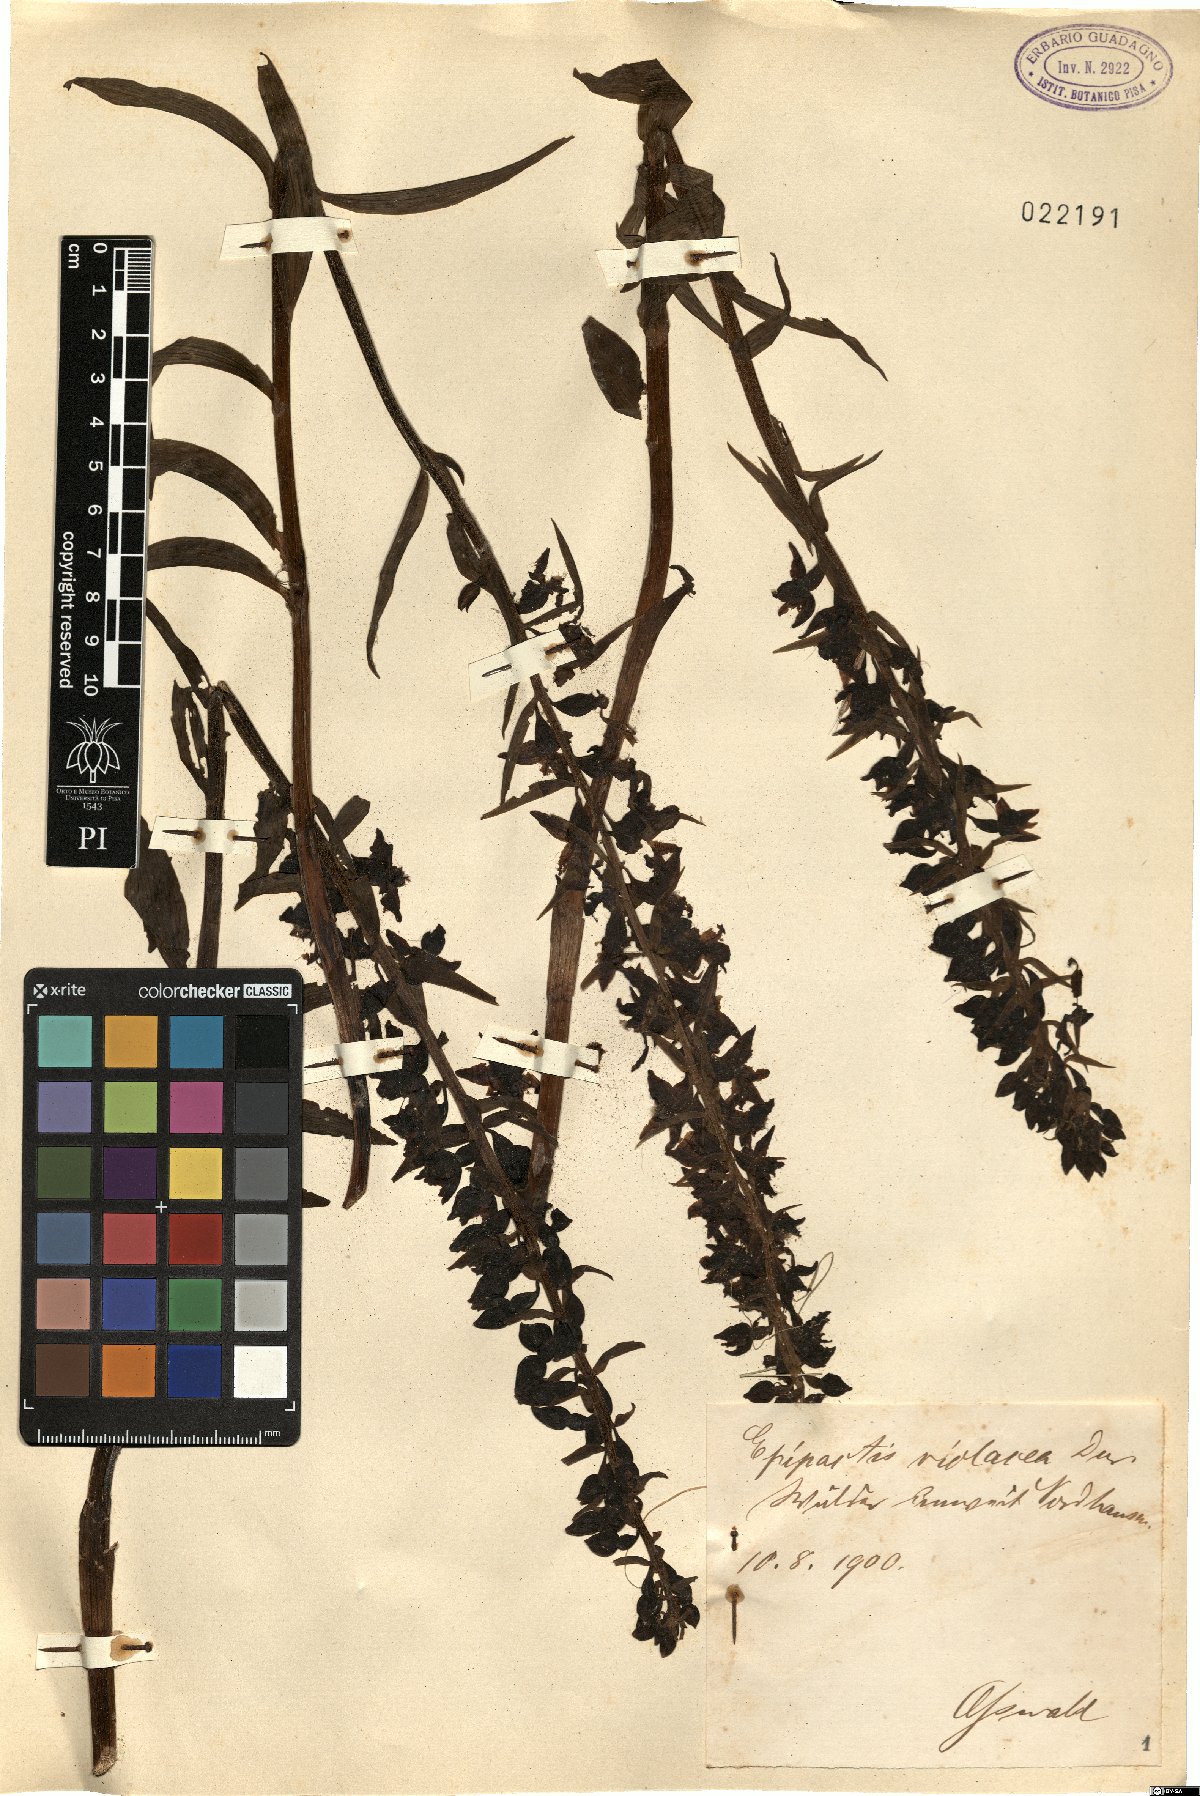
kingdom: Plantae
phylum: Tracheophyta
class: Liliopsida
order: Asparagales
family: Orchidaceae
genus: Epipactis
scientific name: Epipactis purpurata
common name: Violet helleborine
